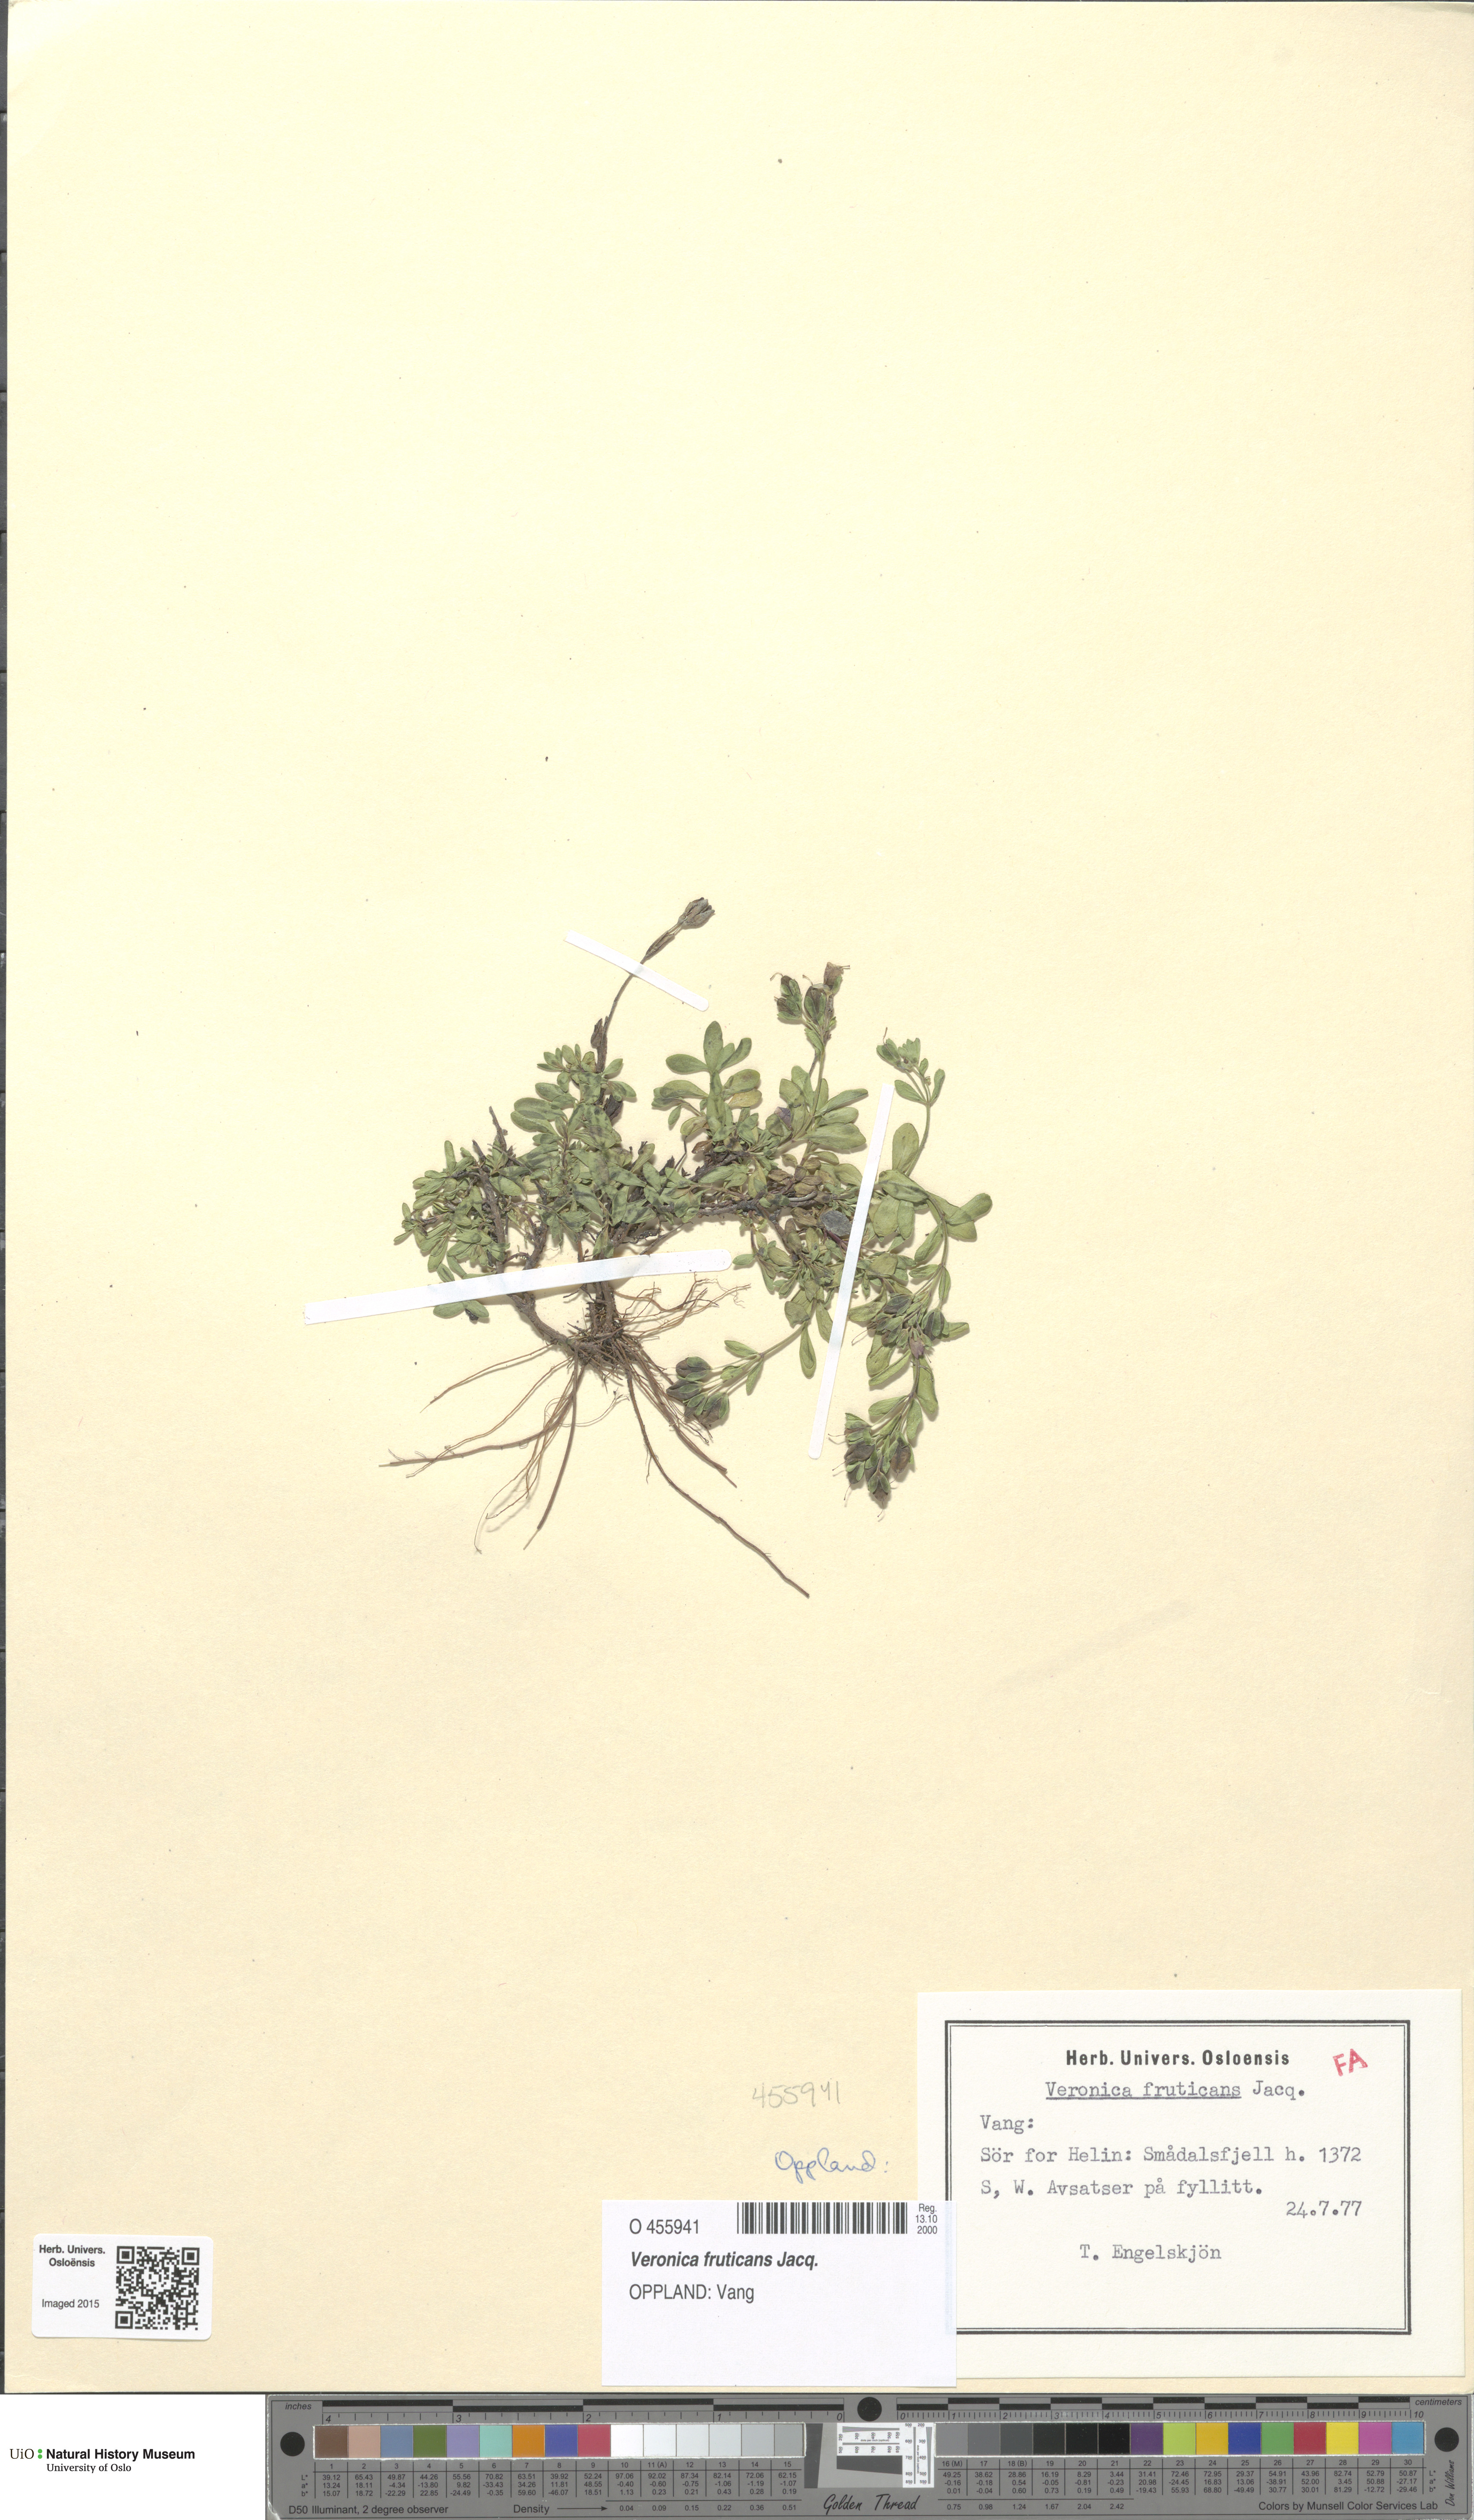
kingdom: Plantae
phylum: Tracheophyta
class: Magnoliopsida
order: Lamiales
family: Plantaginaceae
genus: Veronica
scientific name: Veronica fruticans
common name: Rock speedwell
